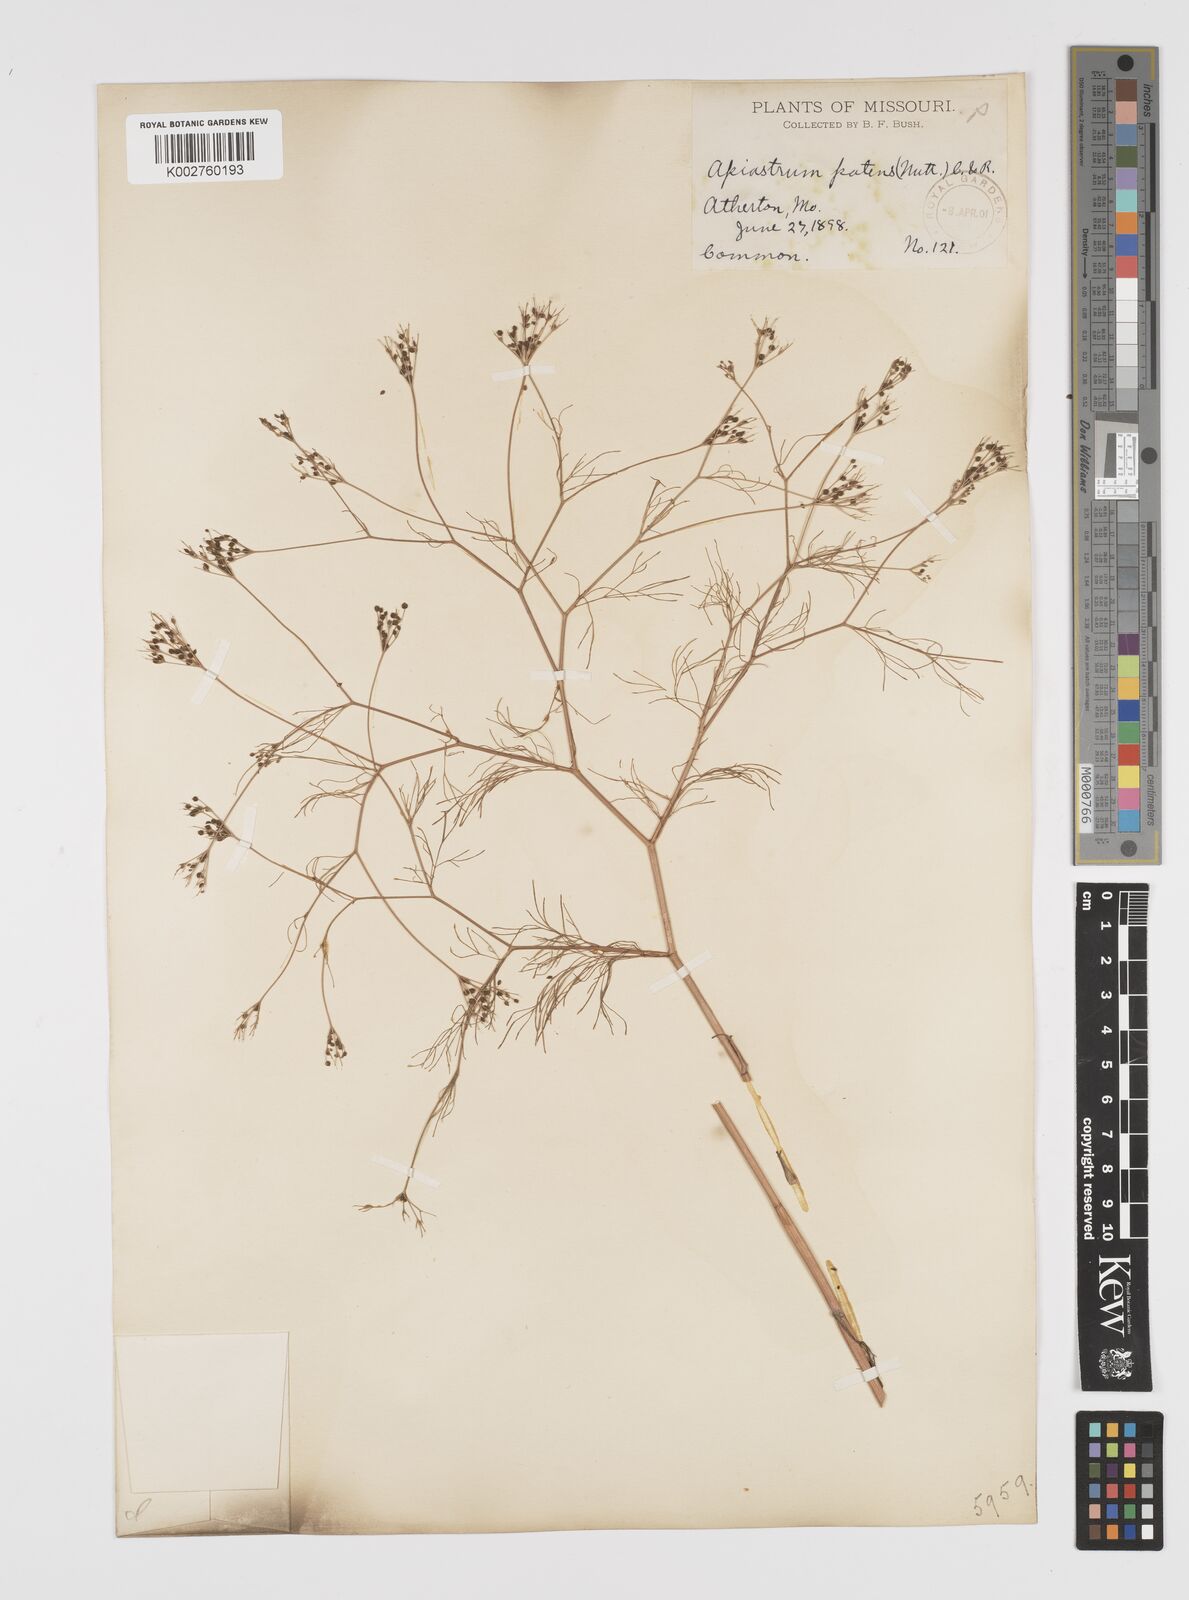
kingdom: Plantae
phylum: Tracheophyta
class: Magnoliopsida
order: Apiales
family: Apiaceae
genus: Spermolepis
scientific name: Spermolepis inermis
